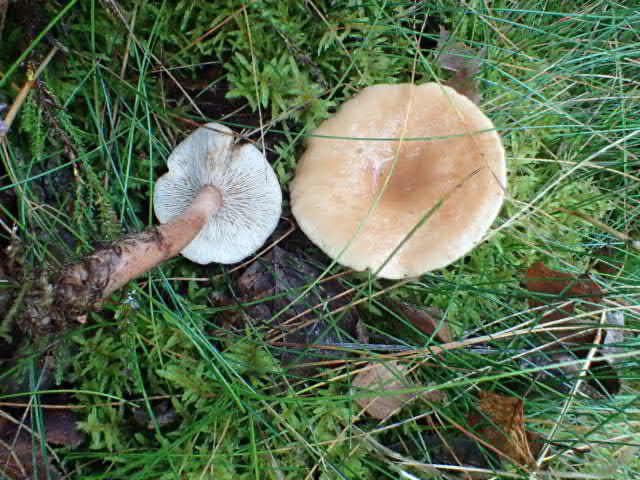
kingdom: Fungi
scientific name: Fungi
